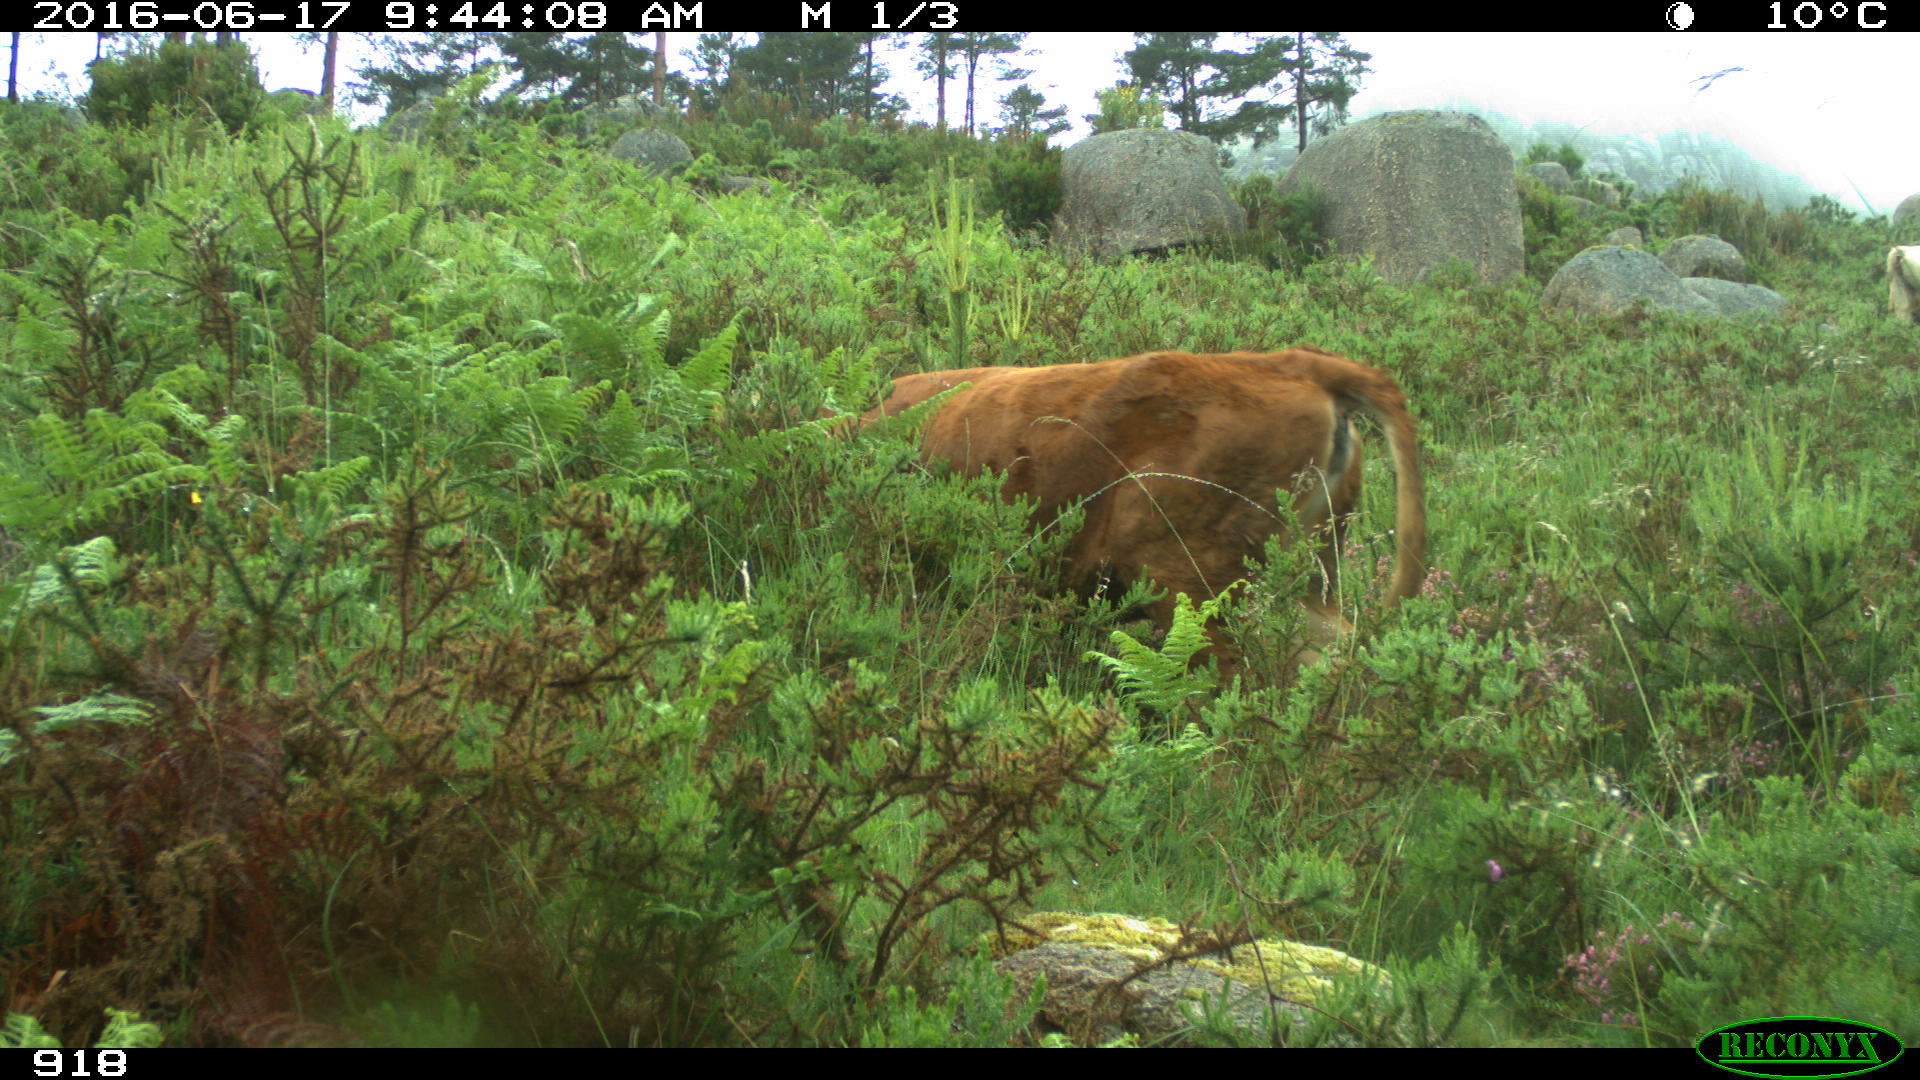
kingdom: Animalia
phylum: Chordata
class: Mammalia
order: Carnivora
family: Canidae
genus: Canis
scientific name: Canis lupus
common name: Gray wolf
